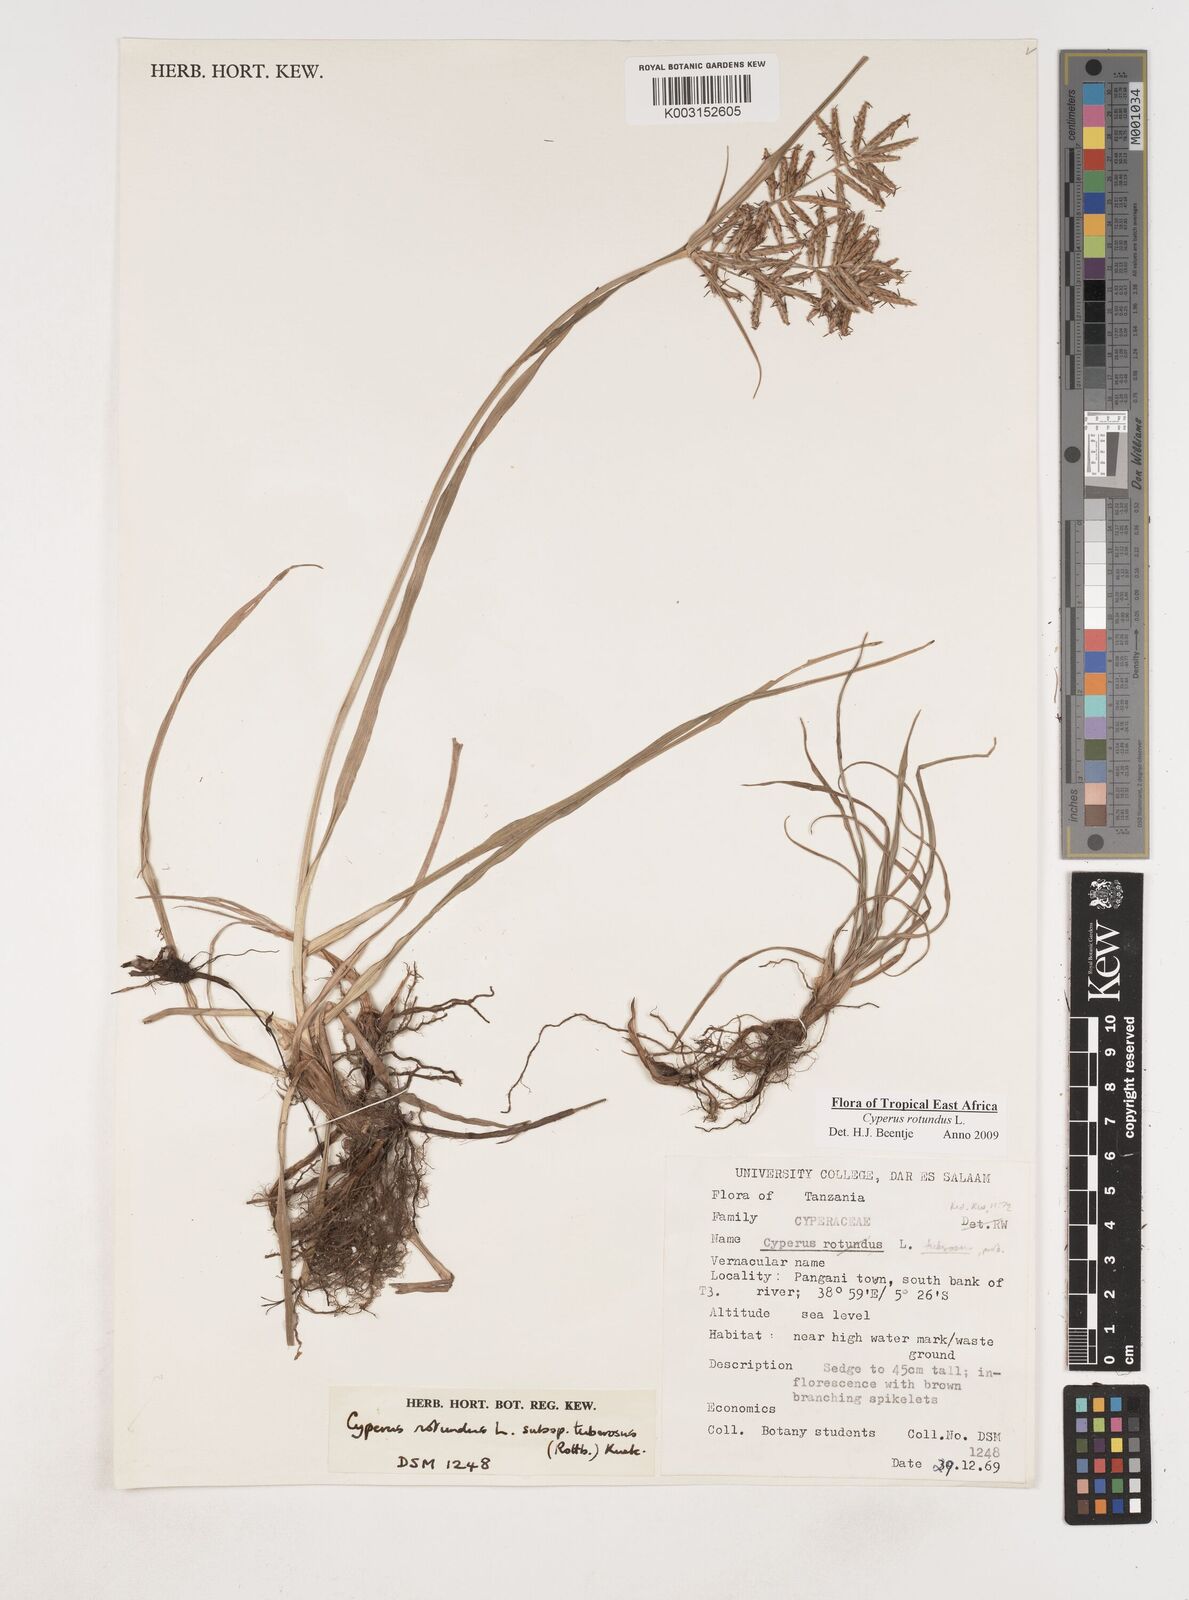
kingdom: Plantae
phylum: Tracheophyta
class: Liliopsida
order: Poales
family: Cyperaceae
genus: Cyperus
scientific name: Cyperus tuberosus
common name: Nut grass
